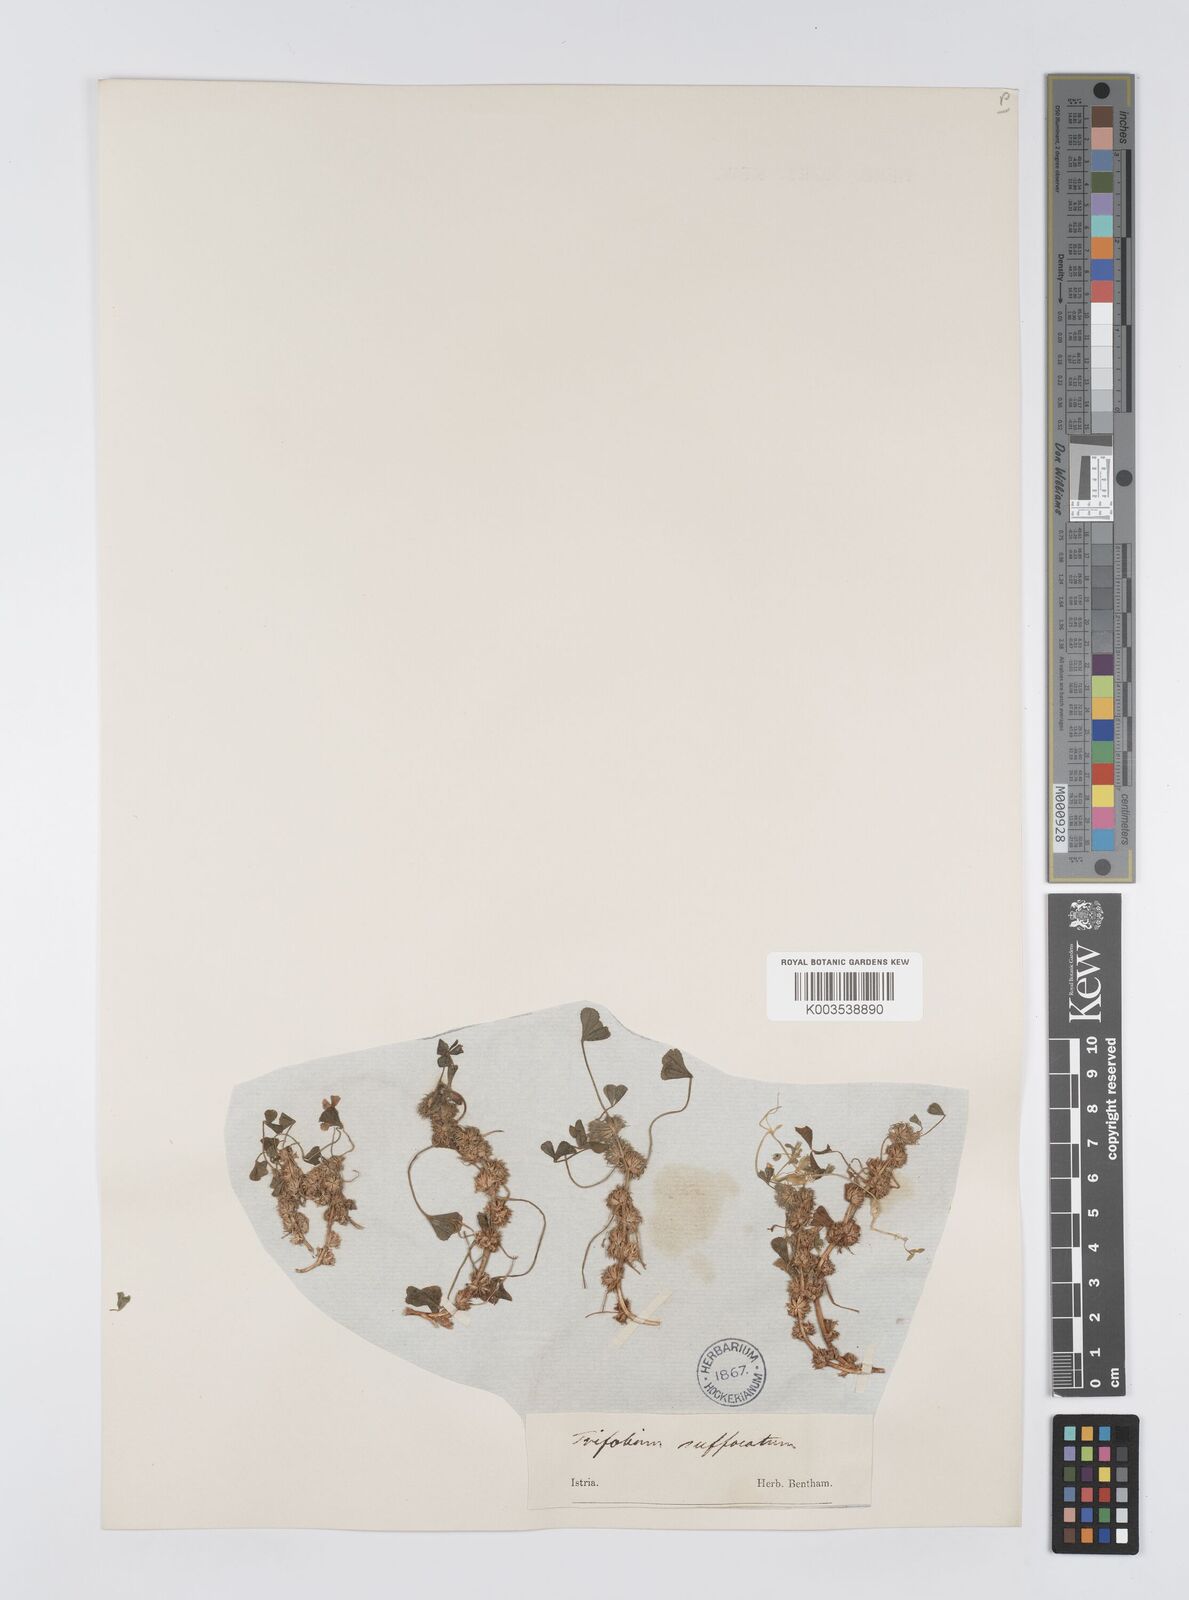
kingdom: Plantae
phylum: Tracheophyta
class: Magnoliopsida
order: Fabales
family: Fabaceae
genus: Trifolium
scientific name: Trifolium suffocatum
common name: Suffocated clover
